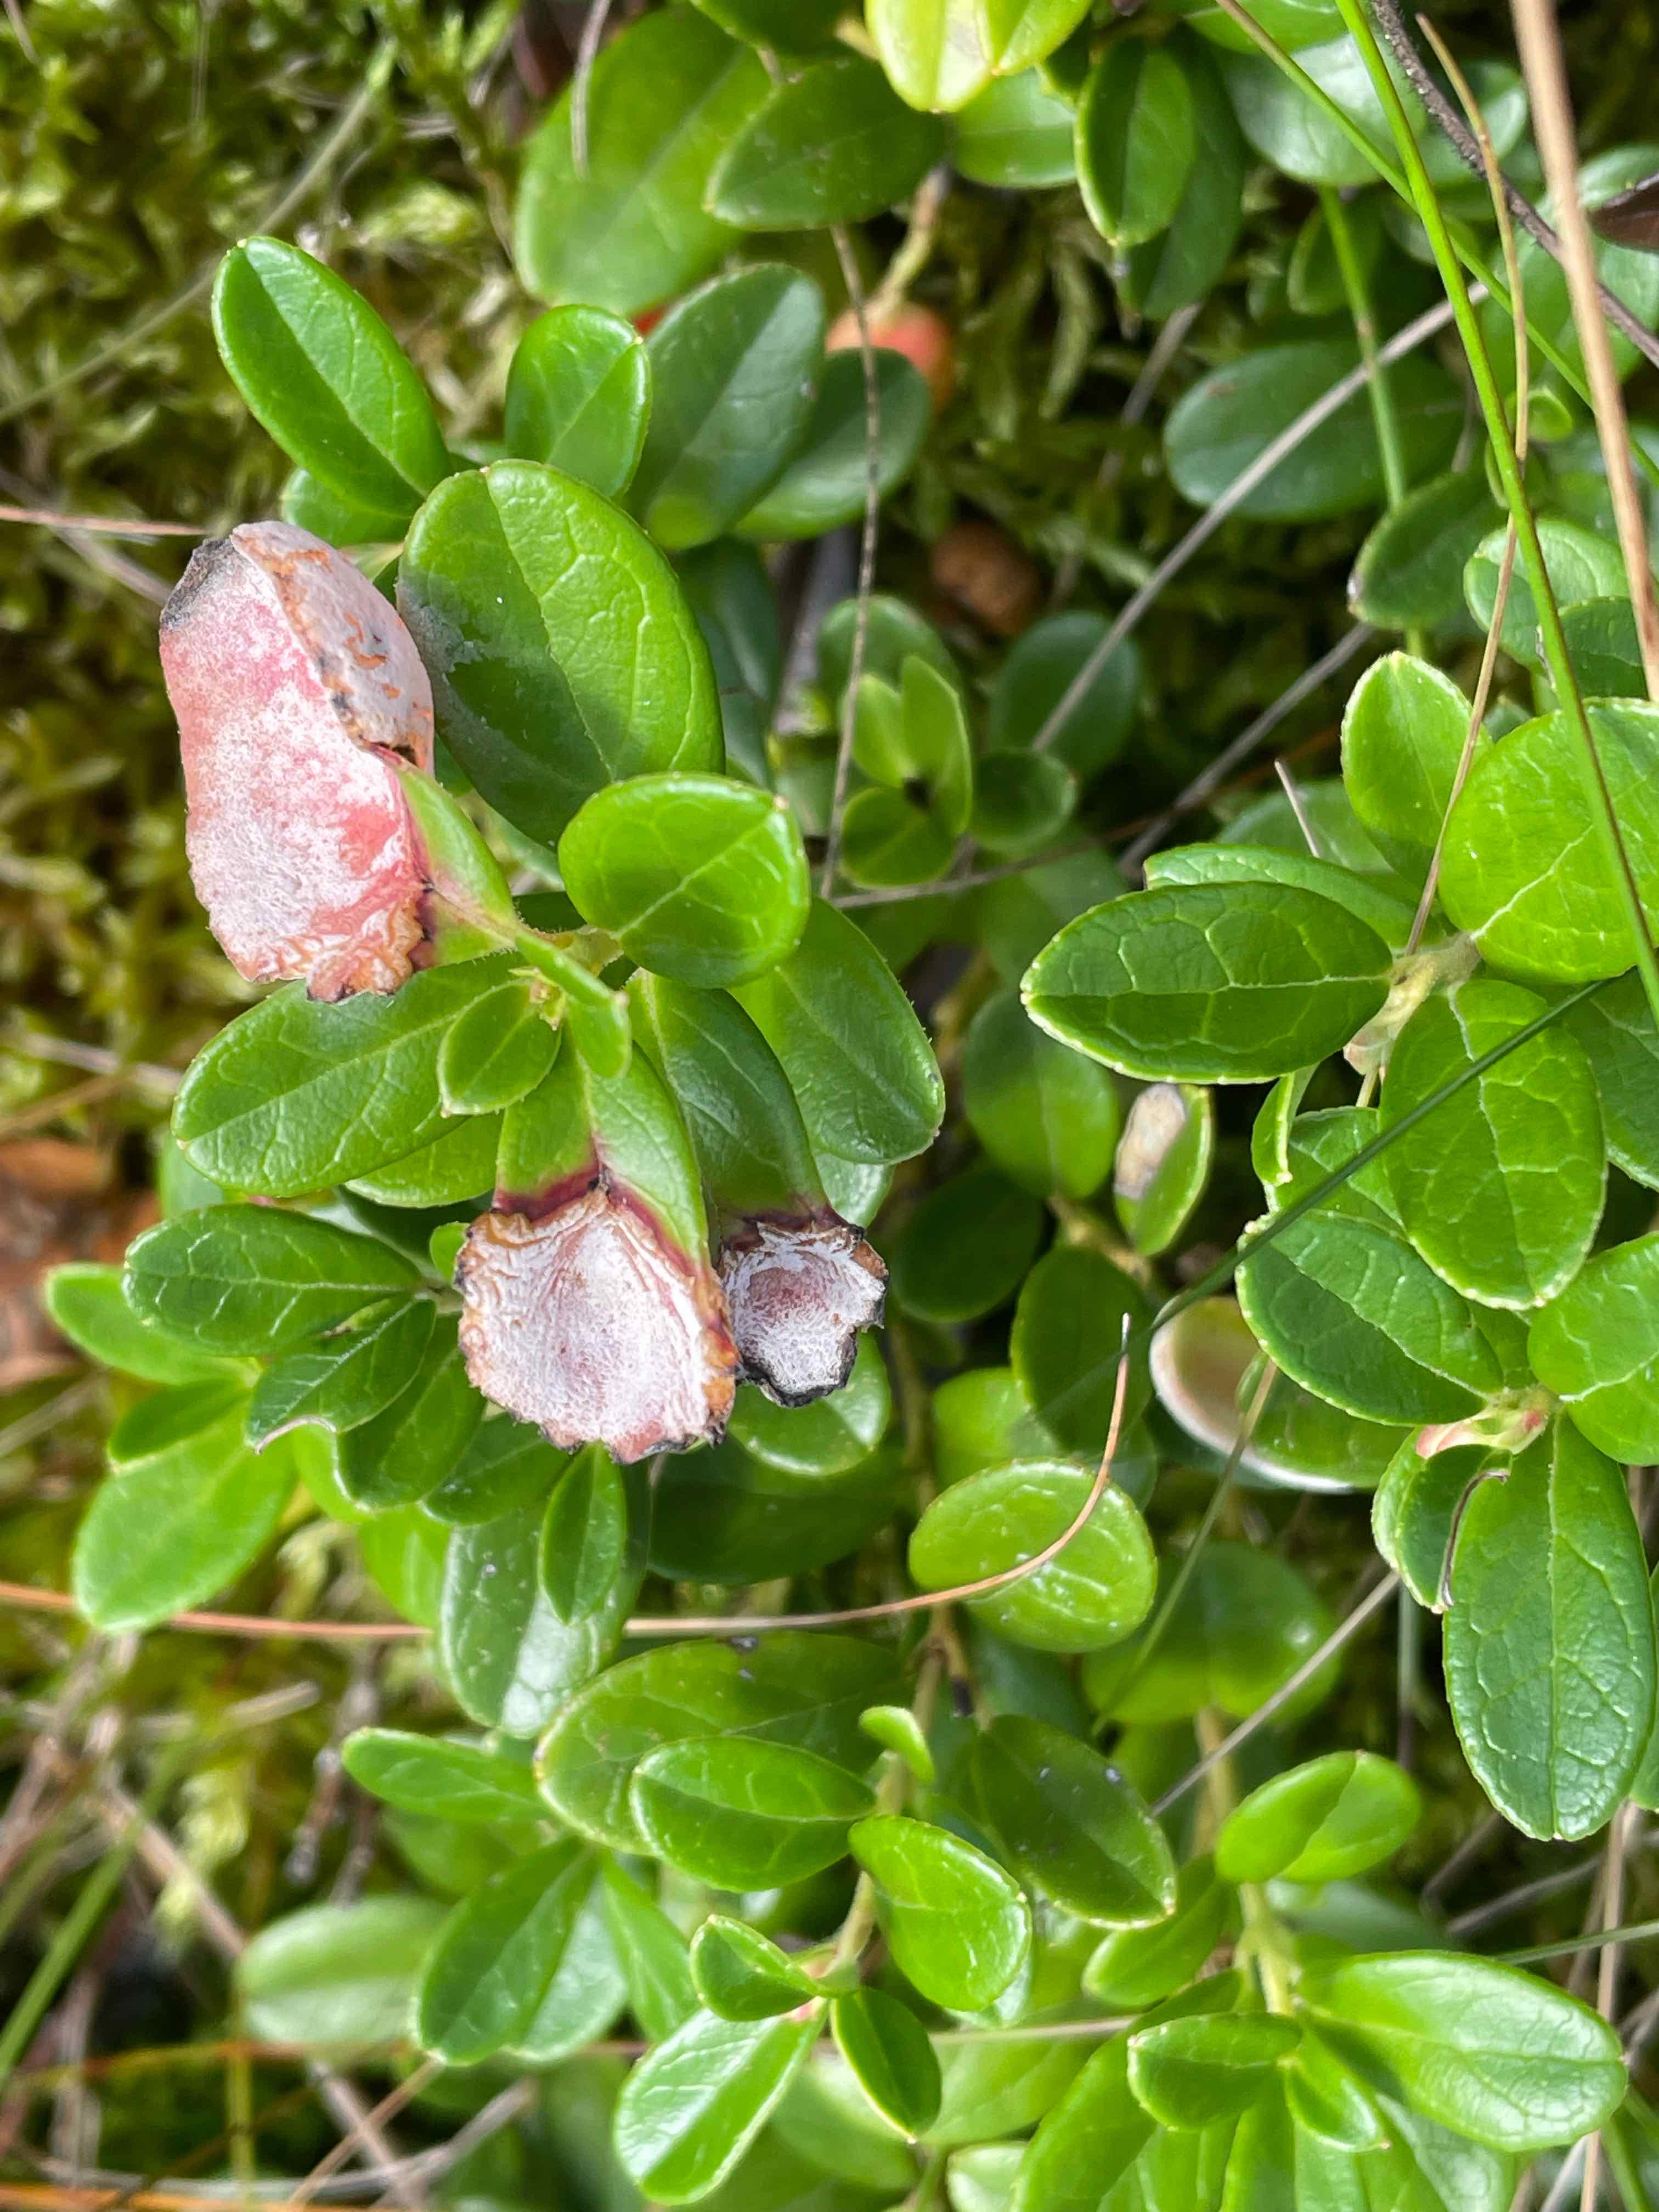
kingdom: Fungi
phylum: Basidiomycota
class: Exobasidiomycetes
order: Exobasidiales
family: Exobasidiaceae
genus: Exobasidium
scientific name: Exobasidium vaccinii
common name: tyttebærblad-bøllesvamp
